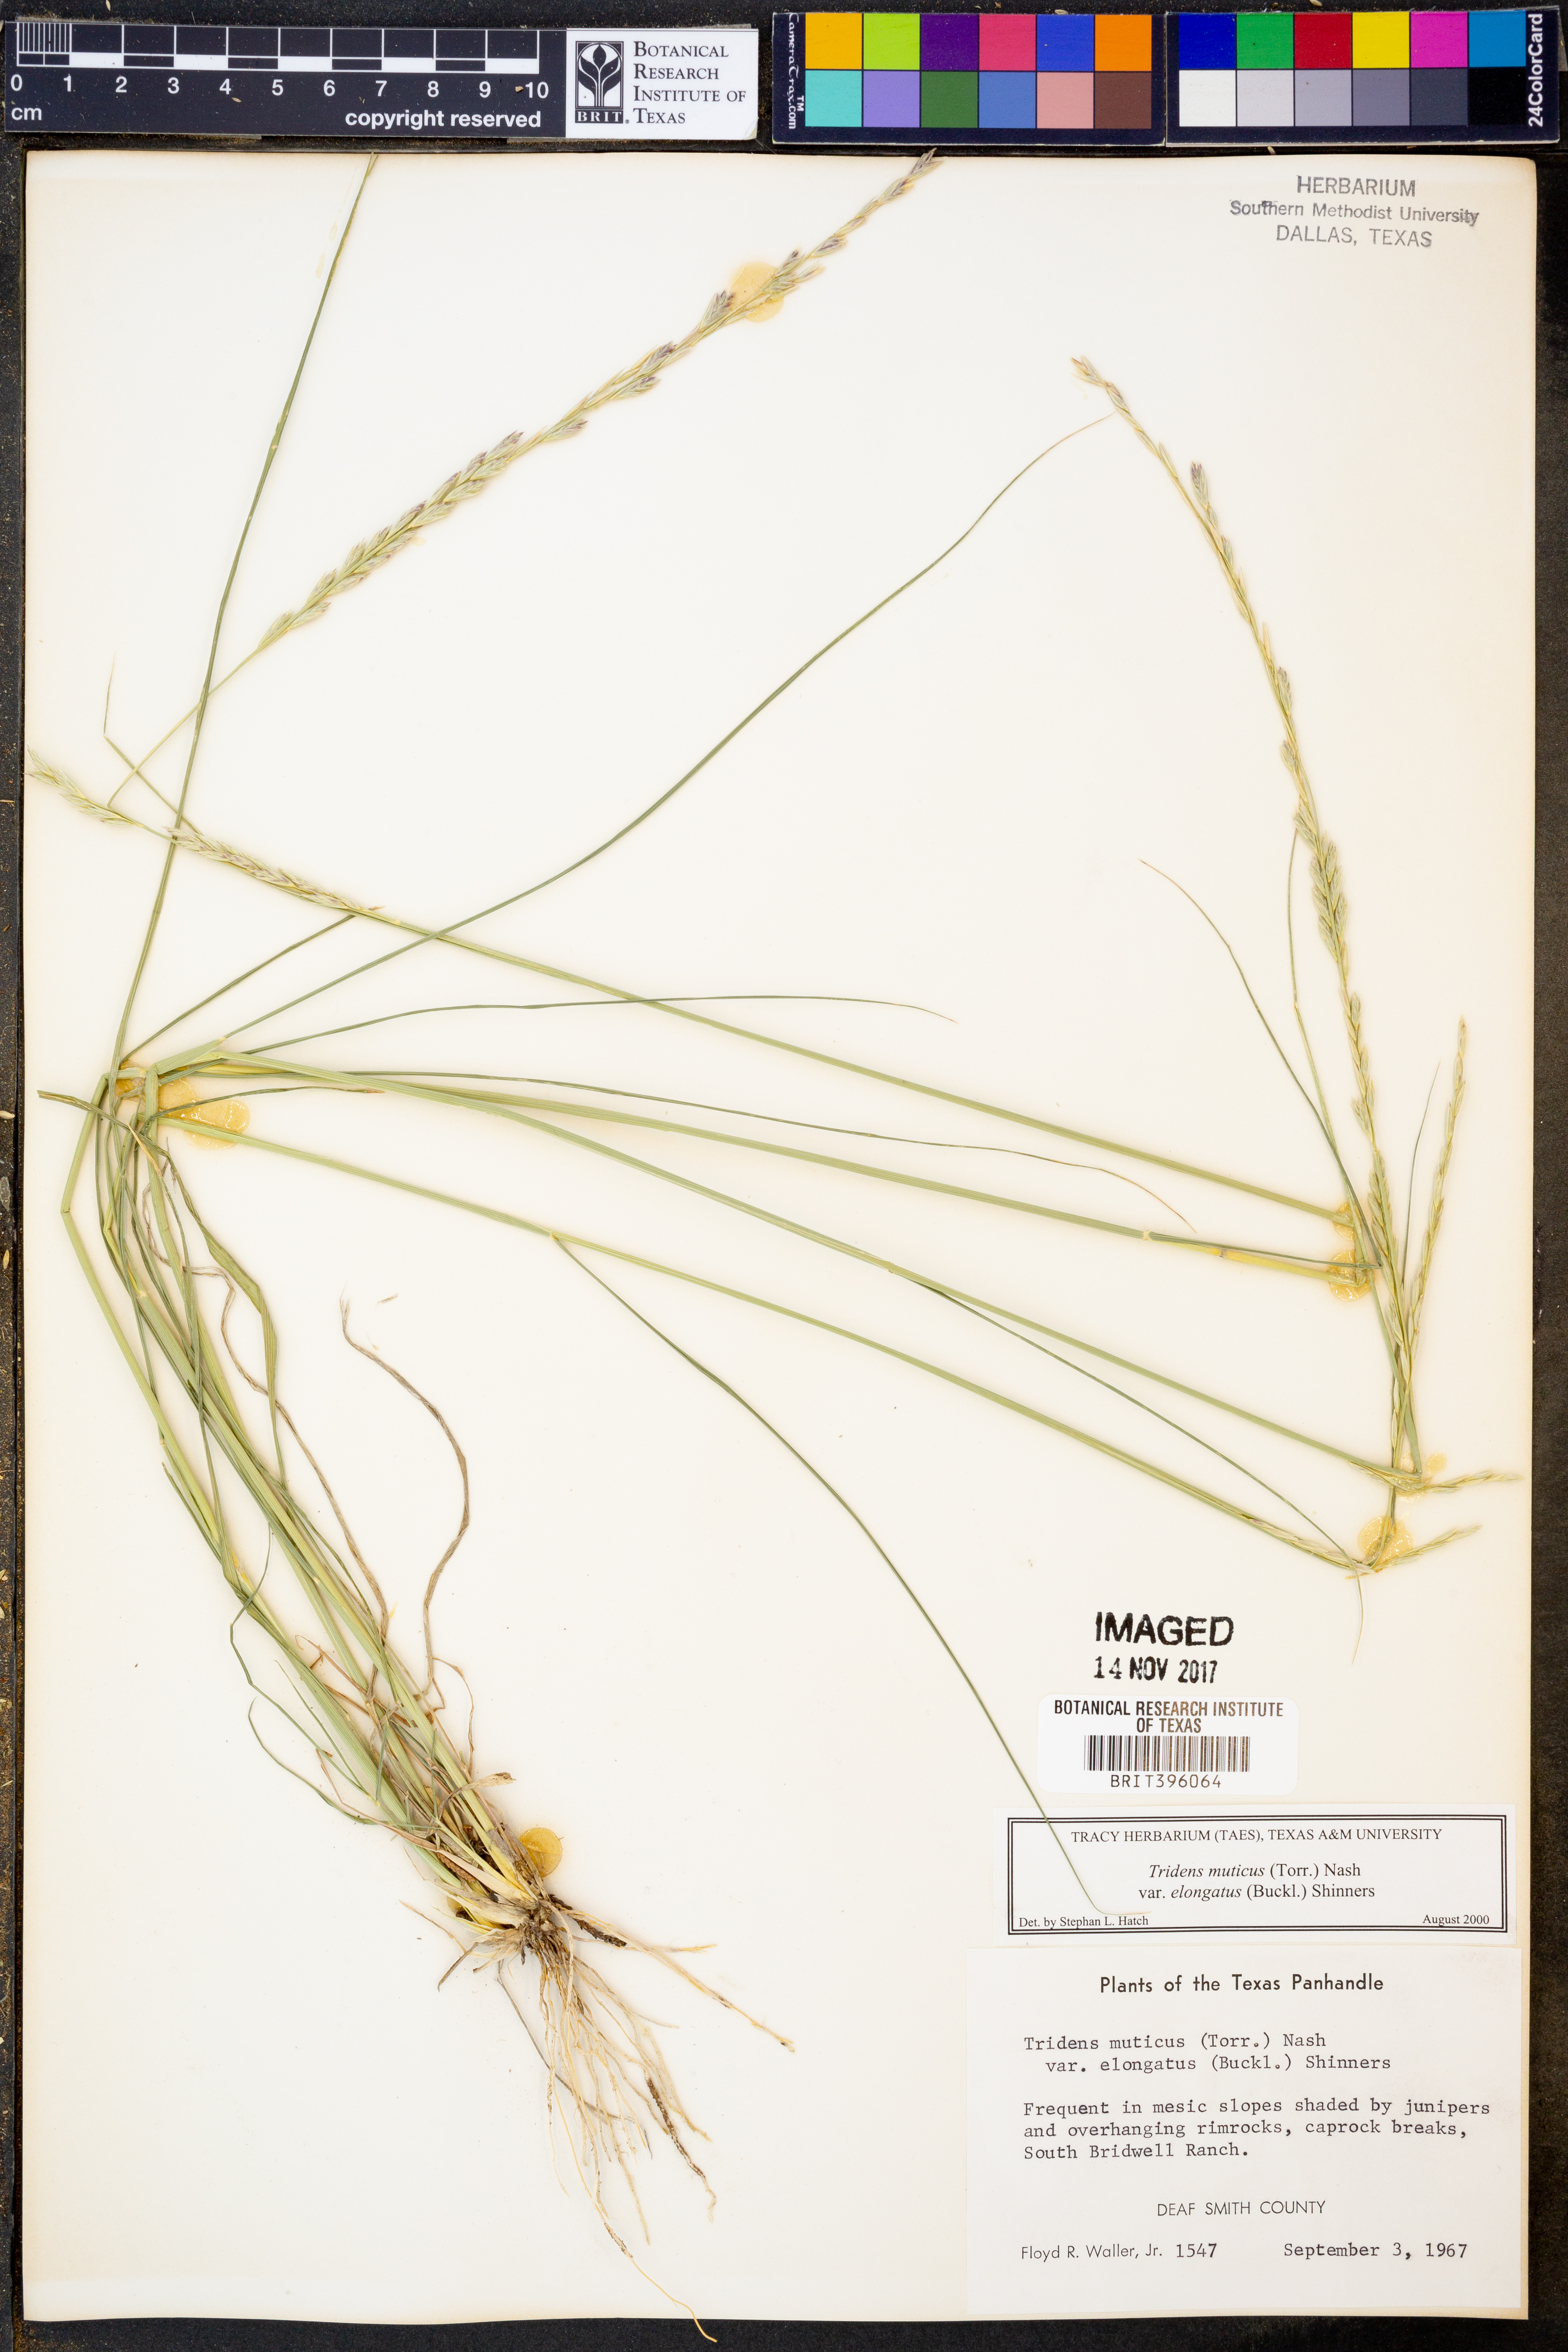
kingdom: Plantae
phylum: Tracheophyta
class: Liliopsida
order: Poales
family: Poaceae
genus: Tridentopsis
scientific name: Tridentopsis mutica
